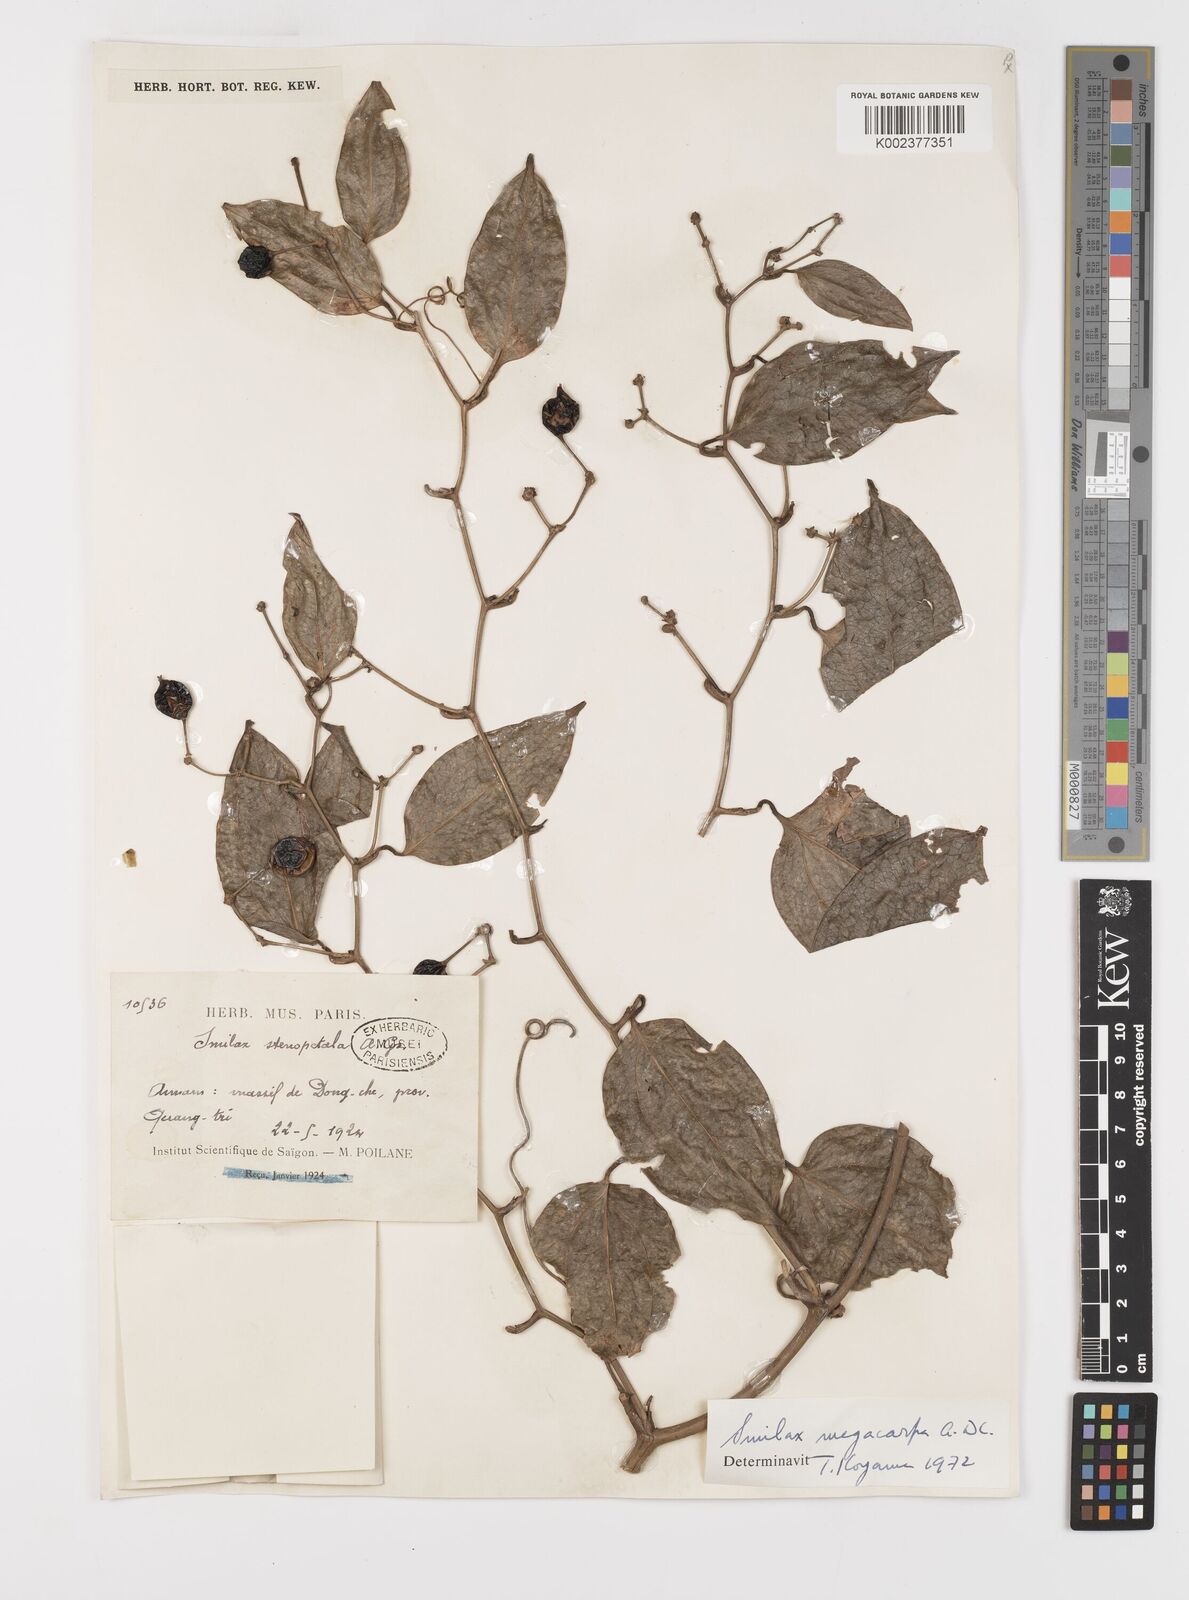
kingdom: Plantae
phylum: Tracheophyta
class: Liliopsida
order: Liliales
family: Smilacaceae
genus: Smilax
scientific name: Smilax bracteata
